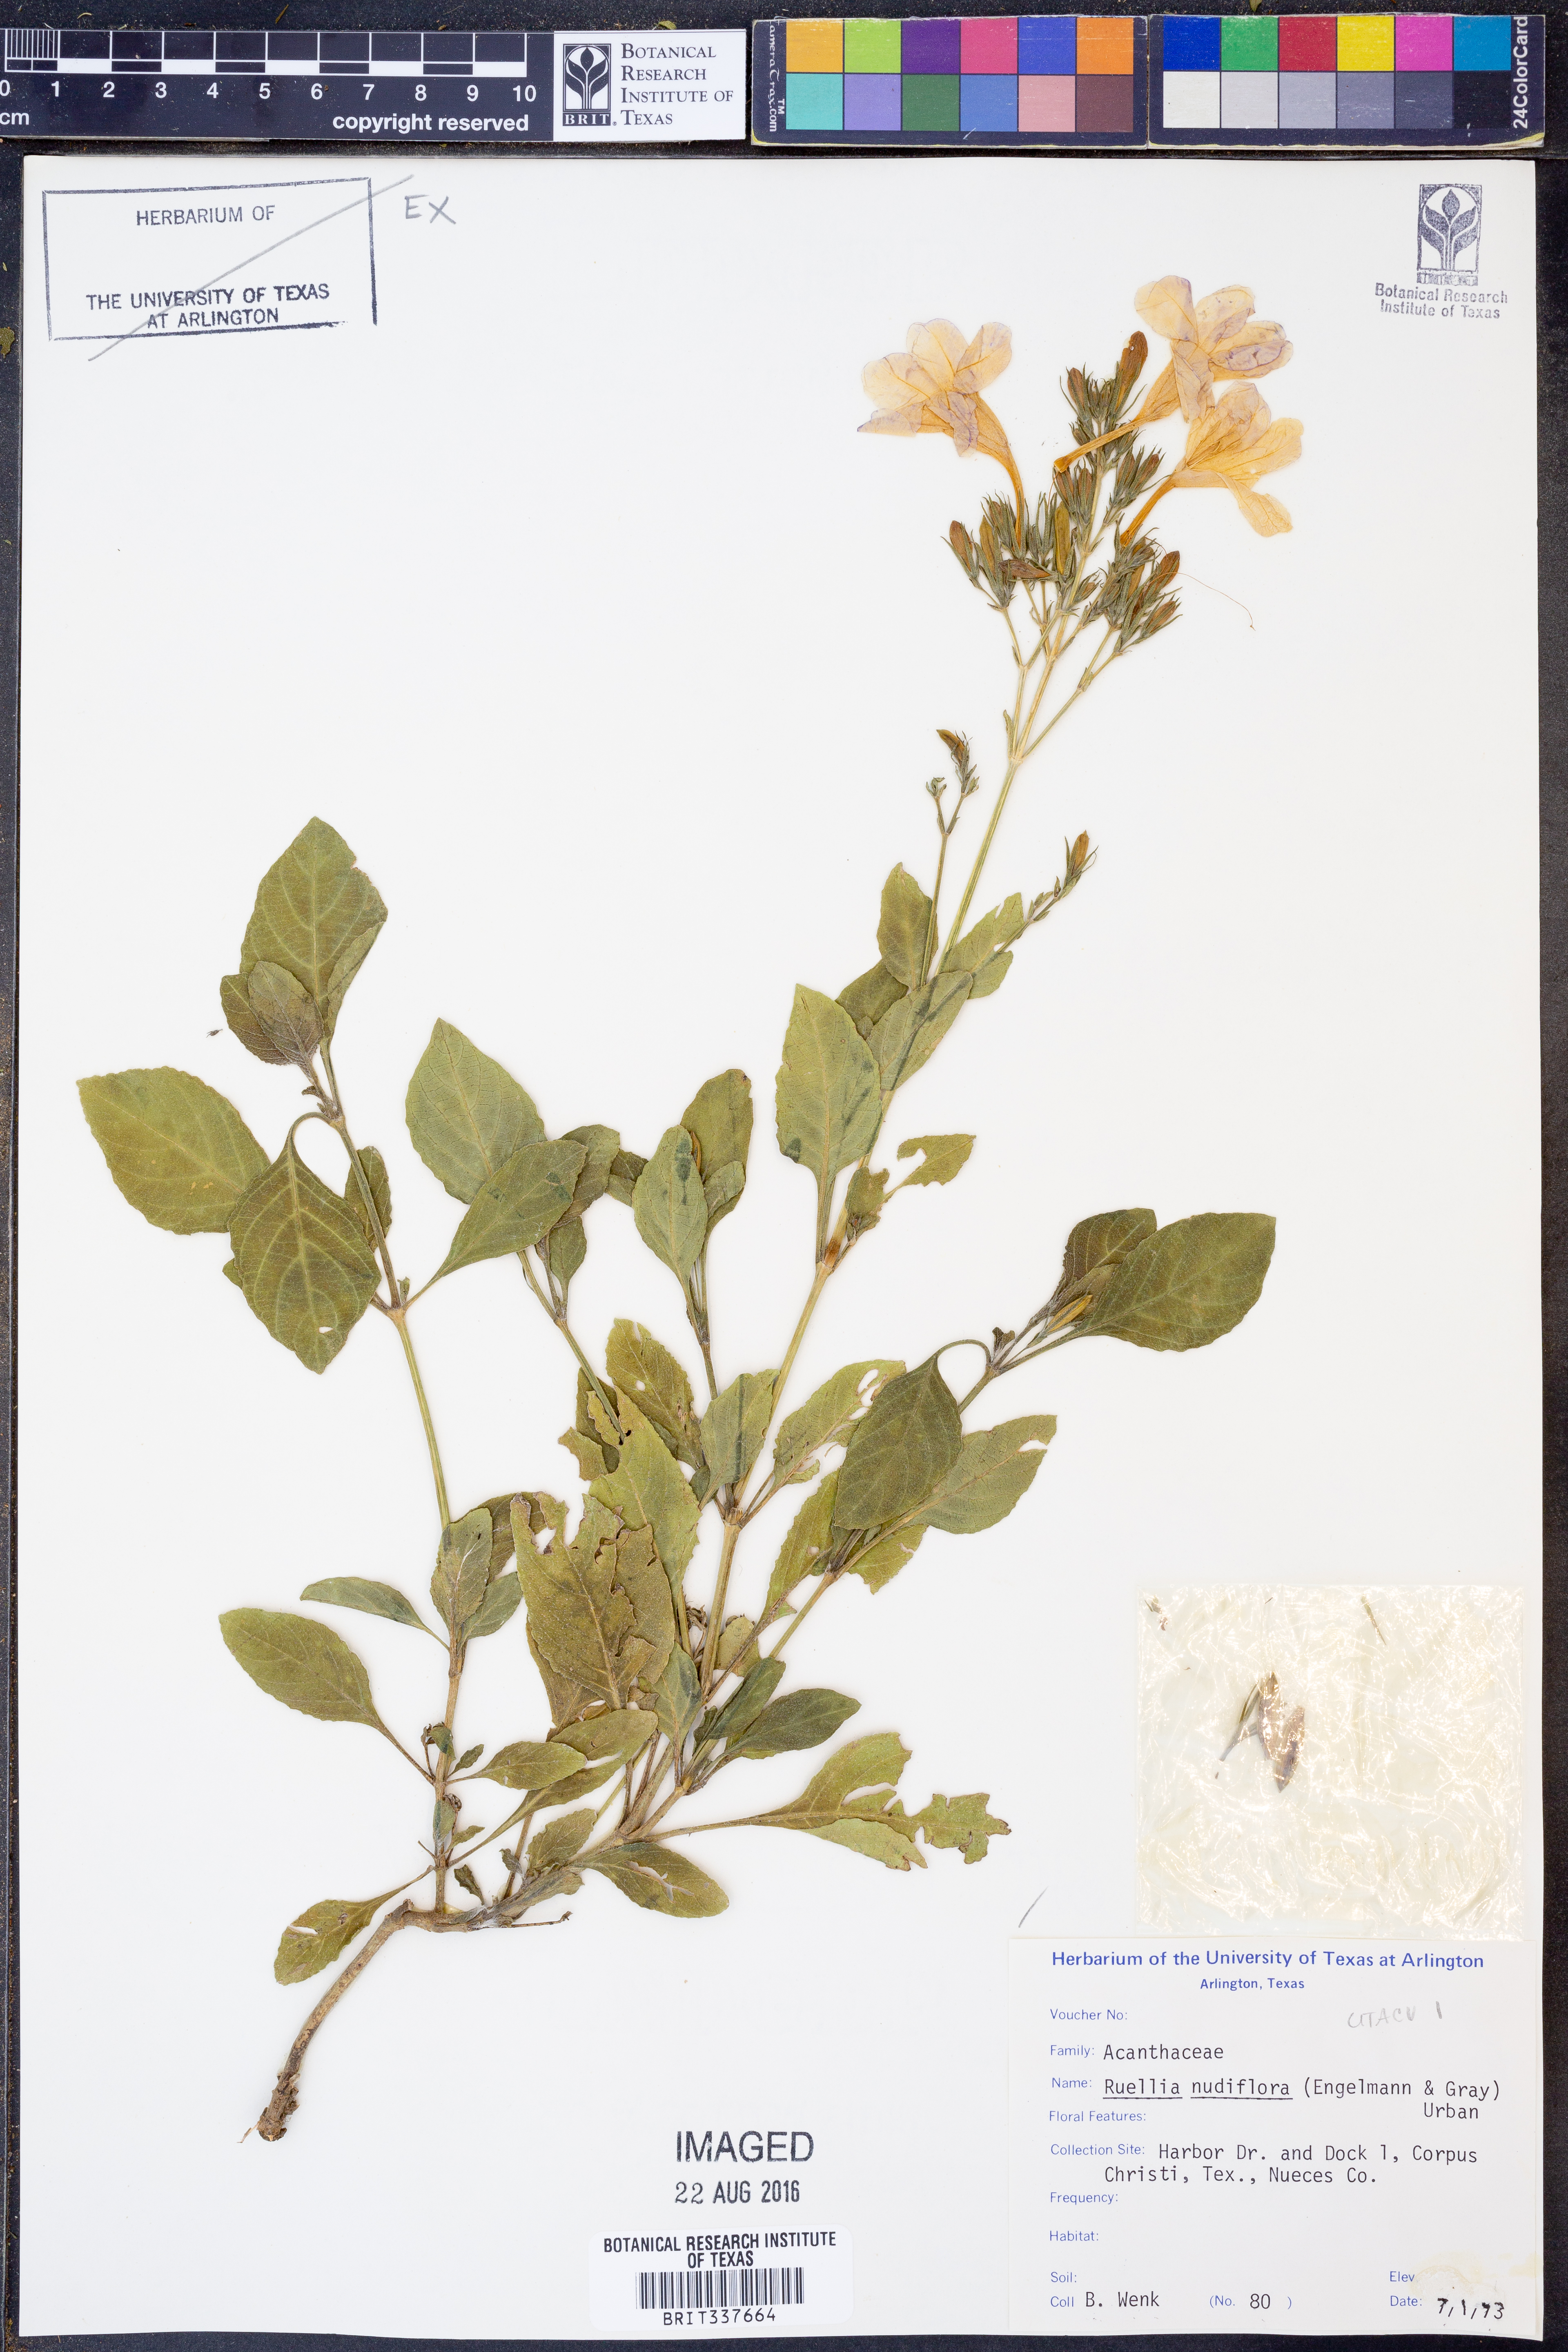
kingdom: Plantae
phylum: Tracheophyta
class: Magnoliopsida
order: Lamiales
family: Acanthaceae
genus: Ruellia
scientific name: Ruellia ciliatiflora
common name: Hairyflower wild petunia
